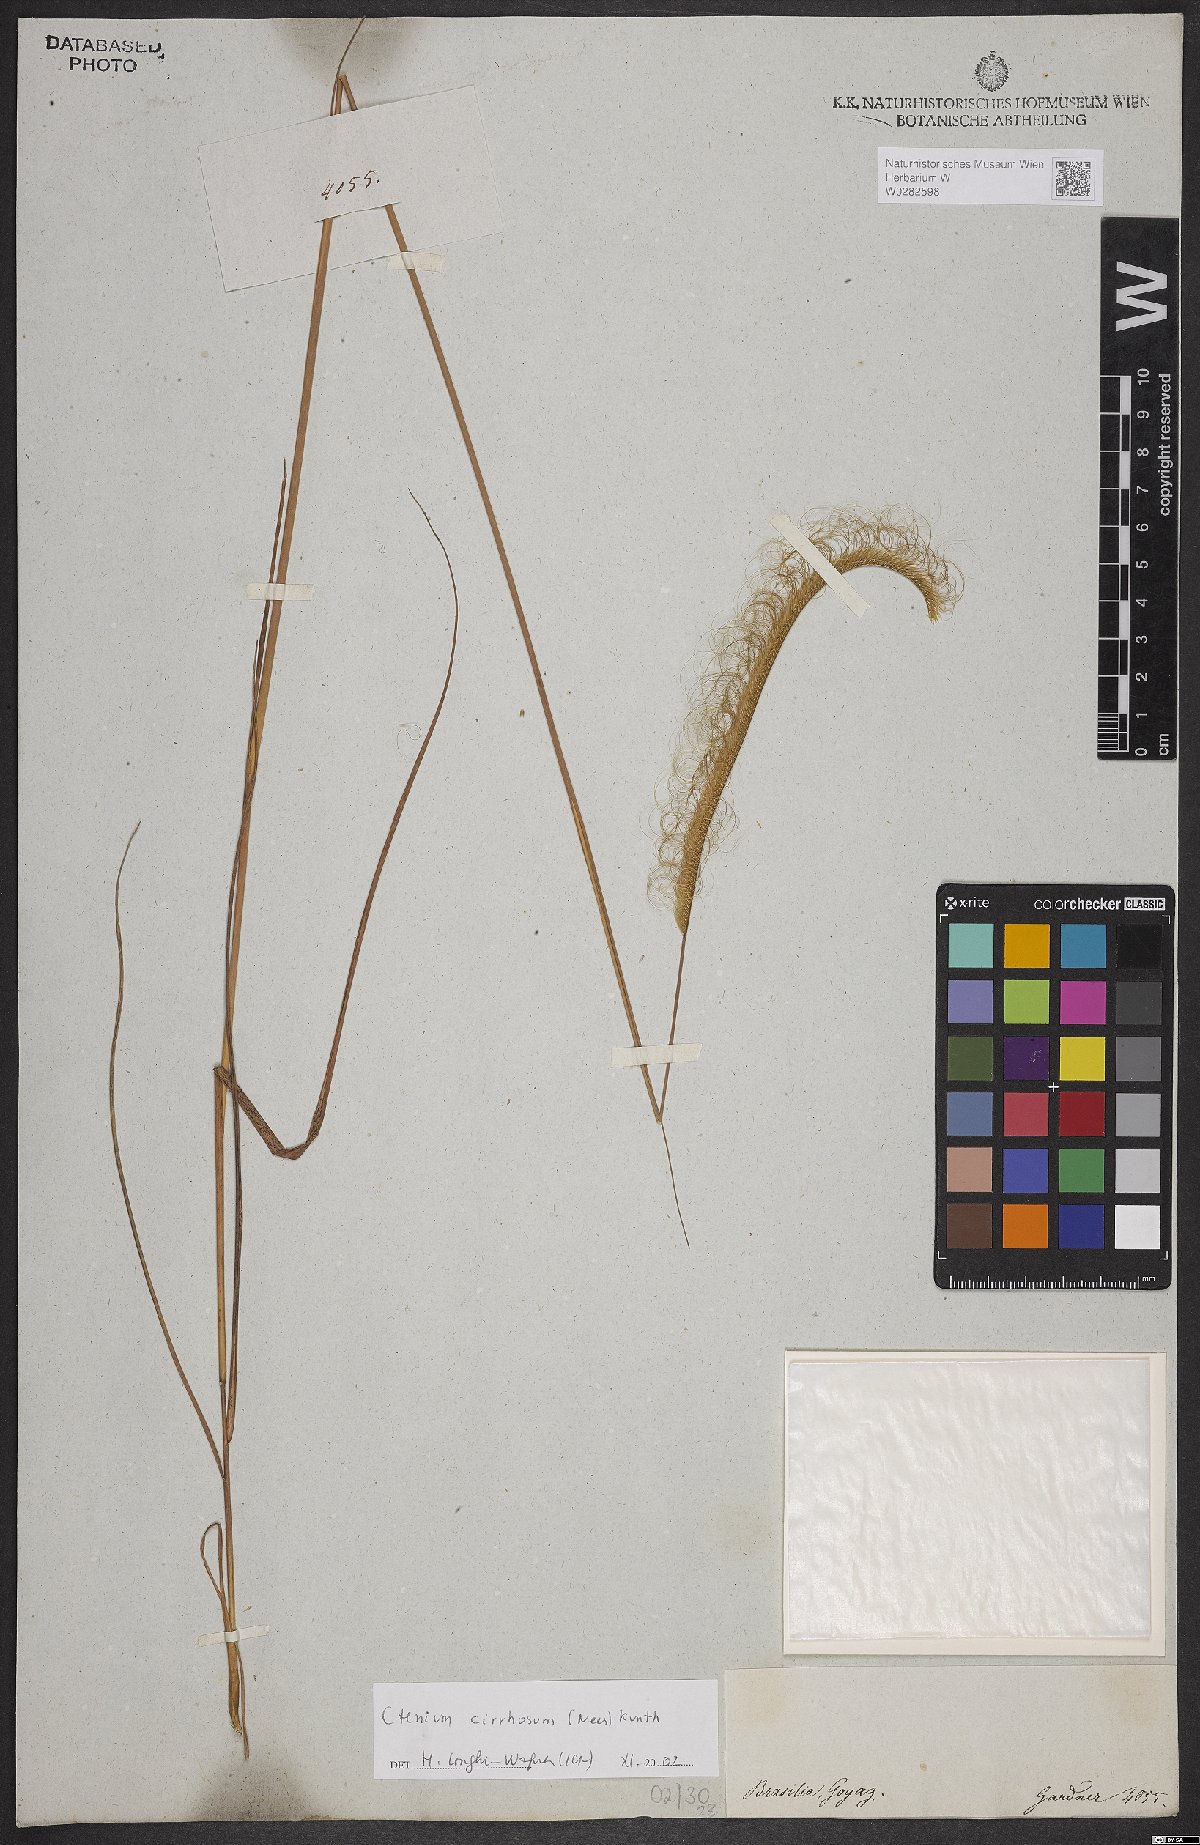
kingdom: Plantae
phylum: Tracheophyta
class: Liliopsida
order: Poales
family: Poaceae
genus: Ctenium
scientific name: Ctenium cirrhosum
